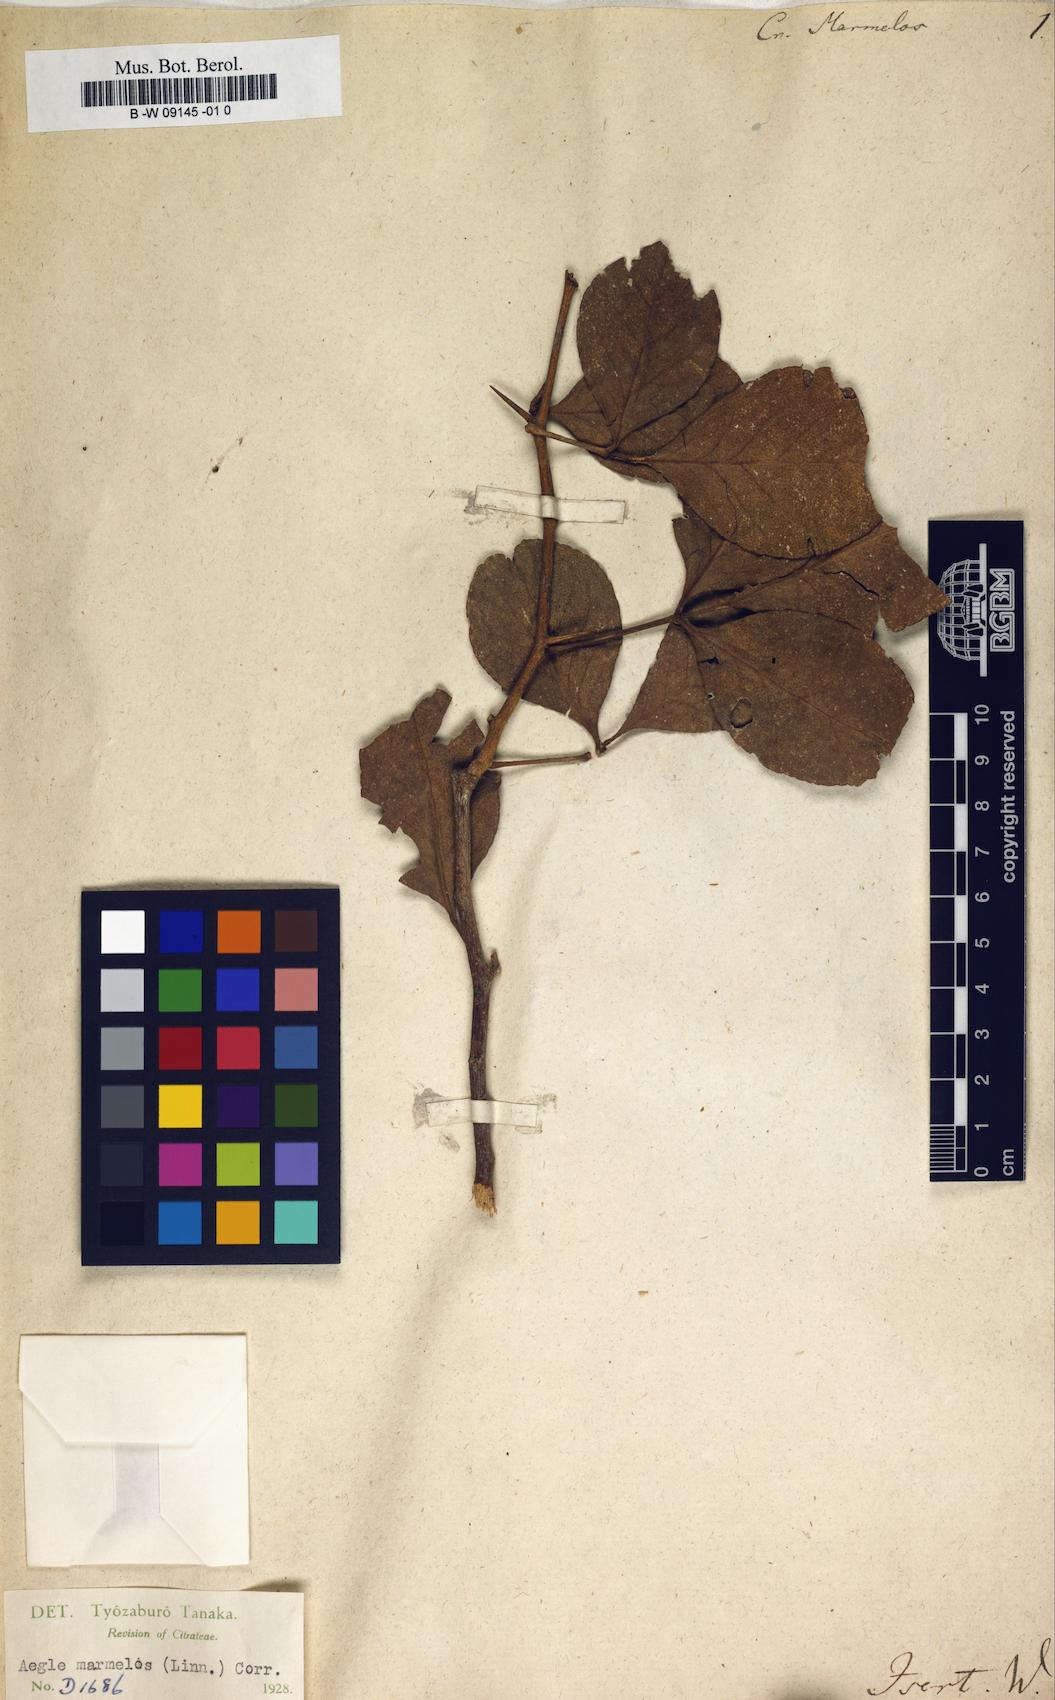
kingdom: Plantae
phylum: Tracheophyta
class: Magnoliopsida
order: Brassicales
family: Capparaceae
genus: Crateva
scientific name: Crateva
